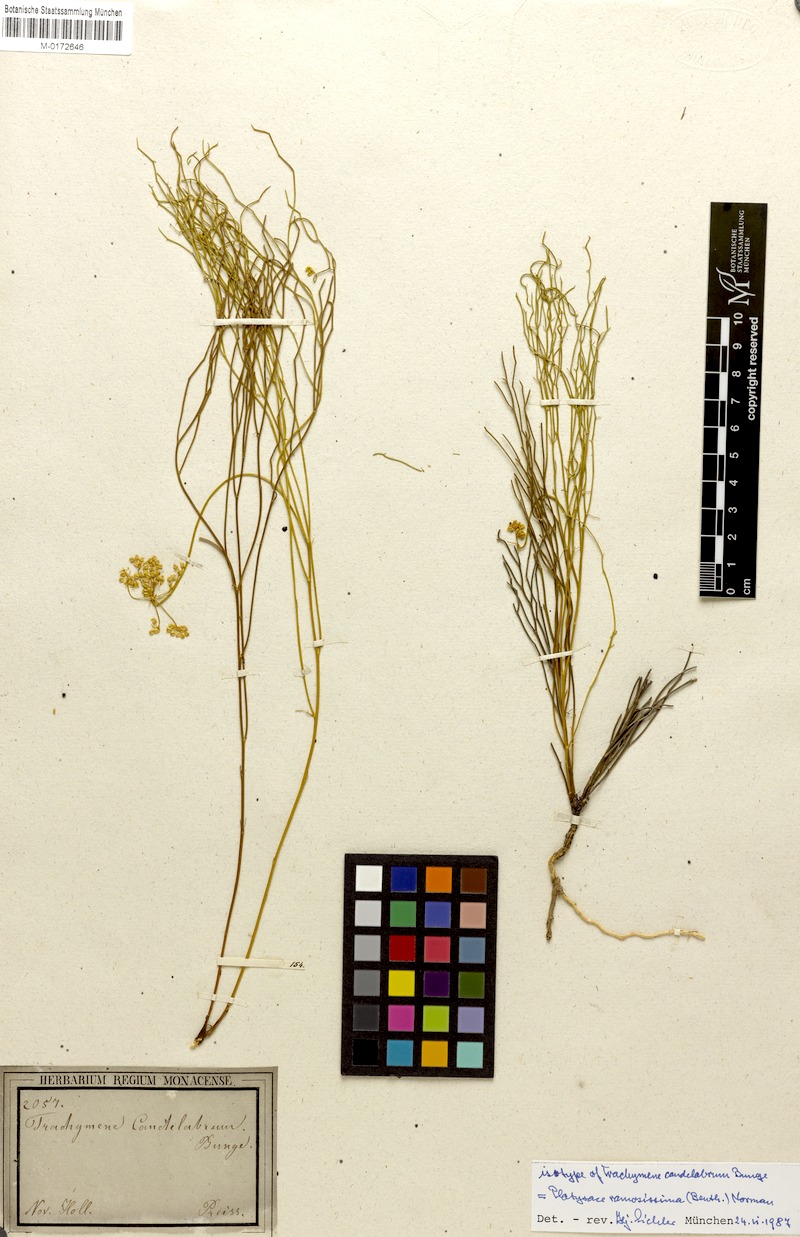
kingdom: Plantae
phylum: Tracheophyta
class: Magnoliopsida
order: Apiales
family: Apiaceae
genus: Platysace
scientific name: Platysace ramosissima
